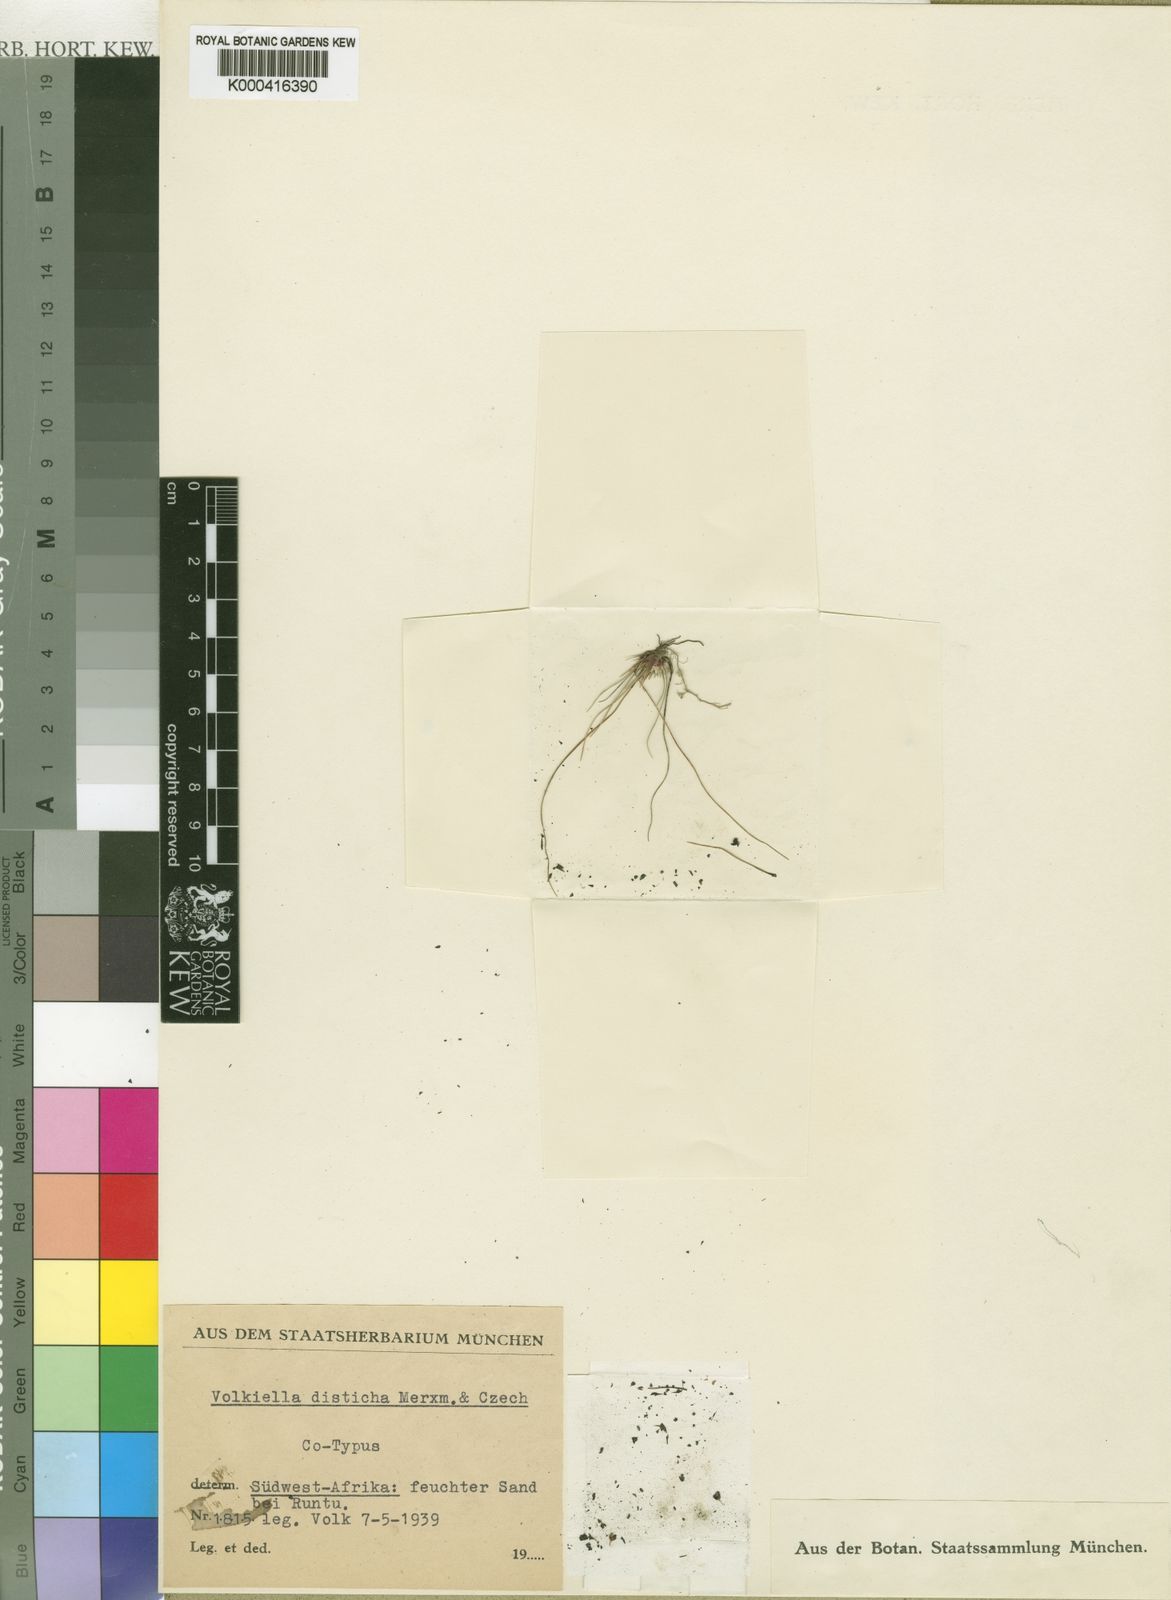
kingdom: Plantae
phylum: Tracheophyta
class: Liliopsida
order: Poales
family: Cyperaceae
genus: Cyperus
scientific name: Cyperus distichus
